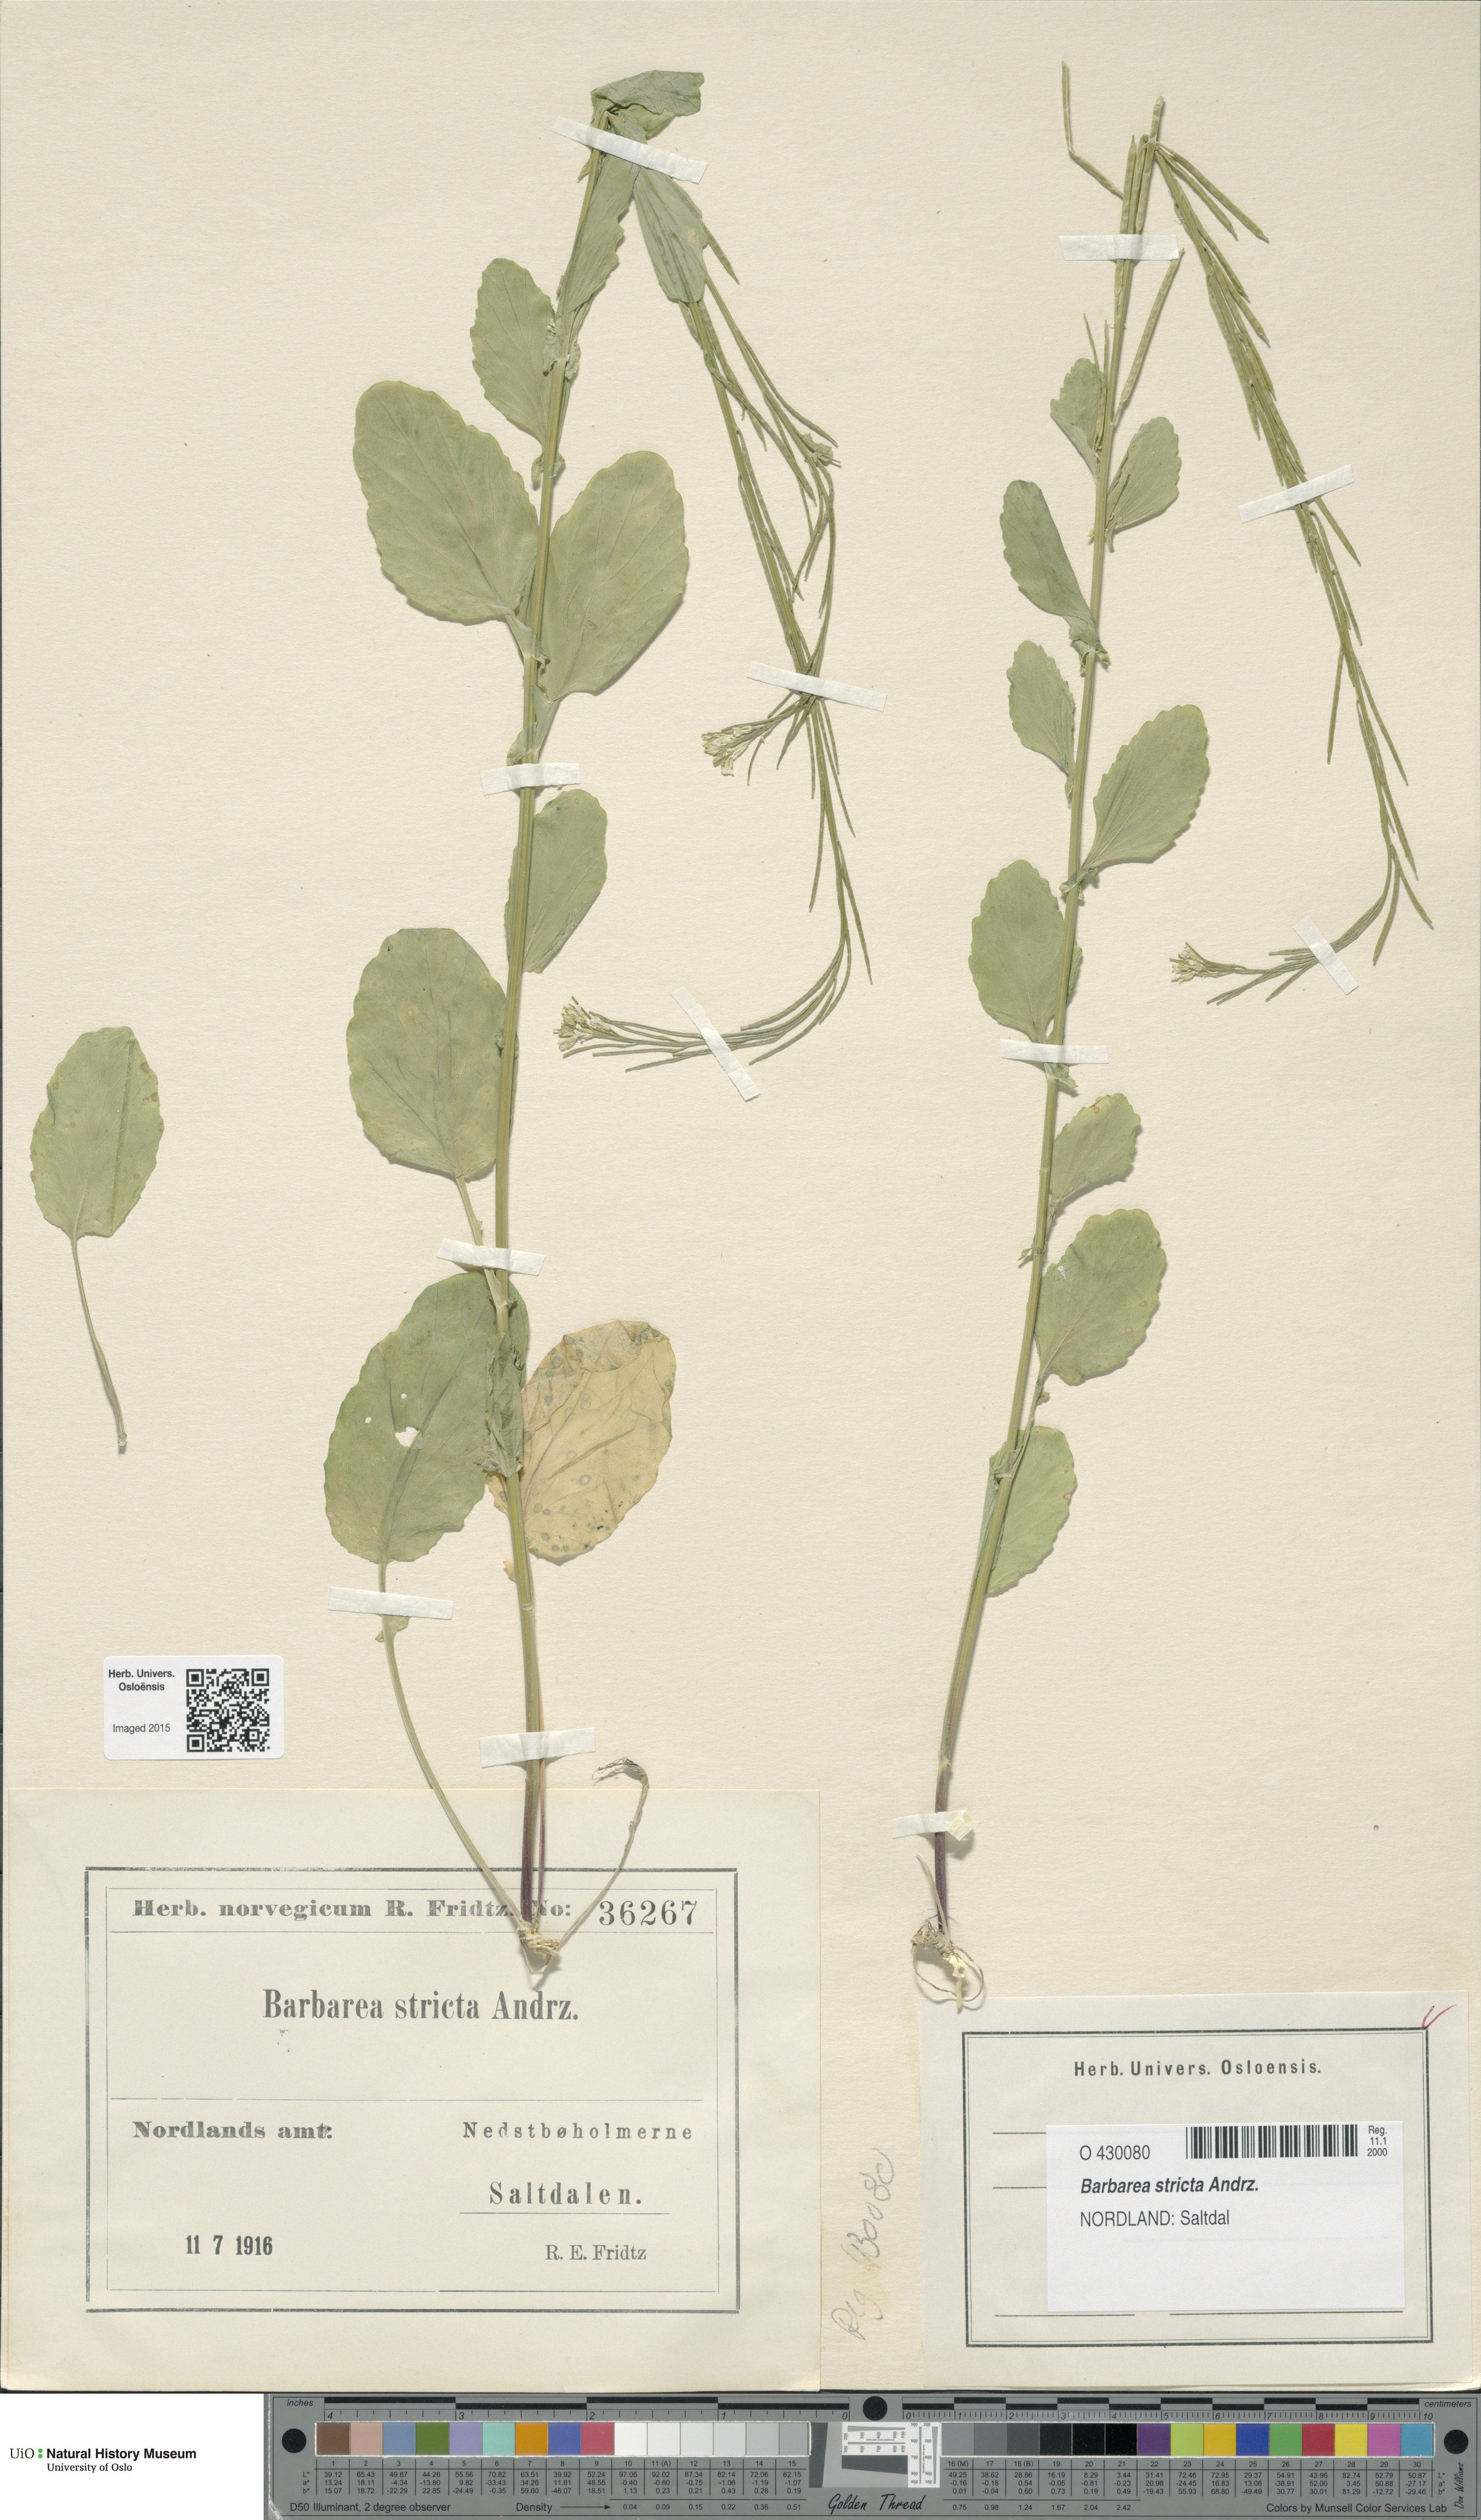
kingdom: Plantae
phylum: Tracheophyta
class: Magnoliopsida
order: Brassicales
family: Brassicaceae
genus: Barbarea
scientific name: Barbarea stricta
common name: Small-flowered winter-cress
